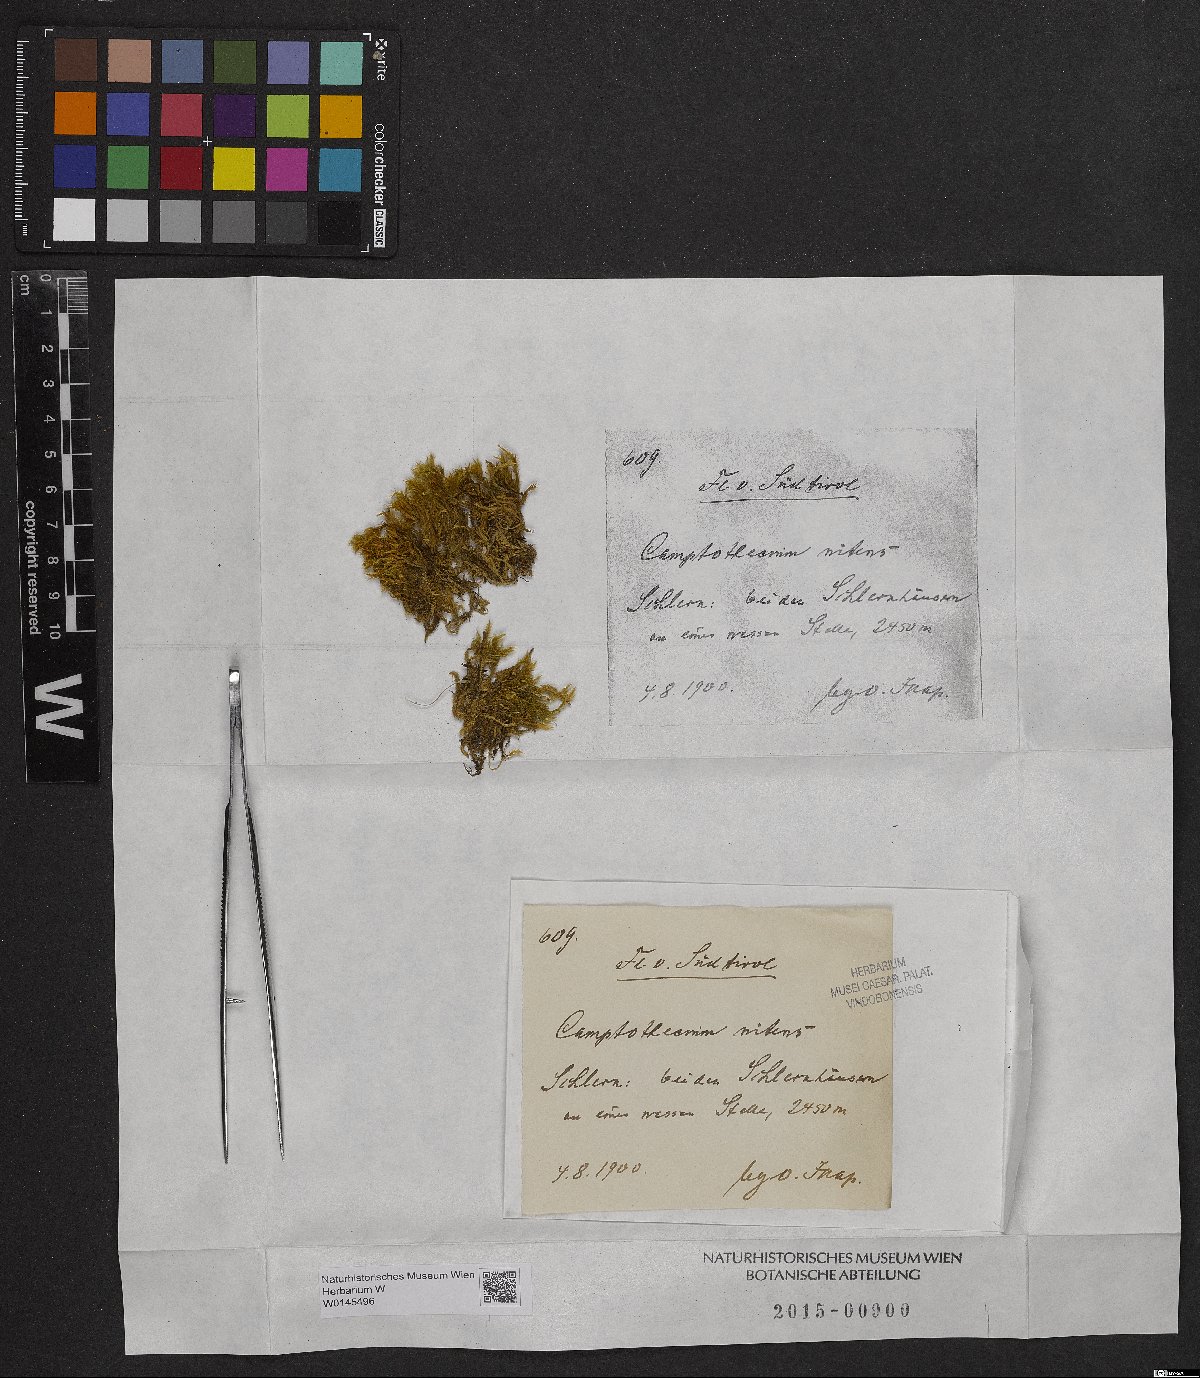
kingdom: Plantae
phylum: Bryophyta
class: Bryopsida
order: Hypnales
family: Brachytheciaceae
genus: Camptothecium
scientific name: Camptothecium
